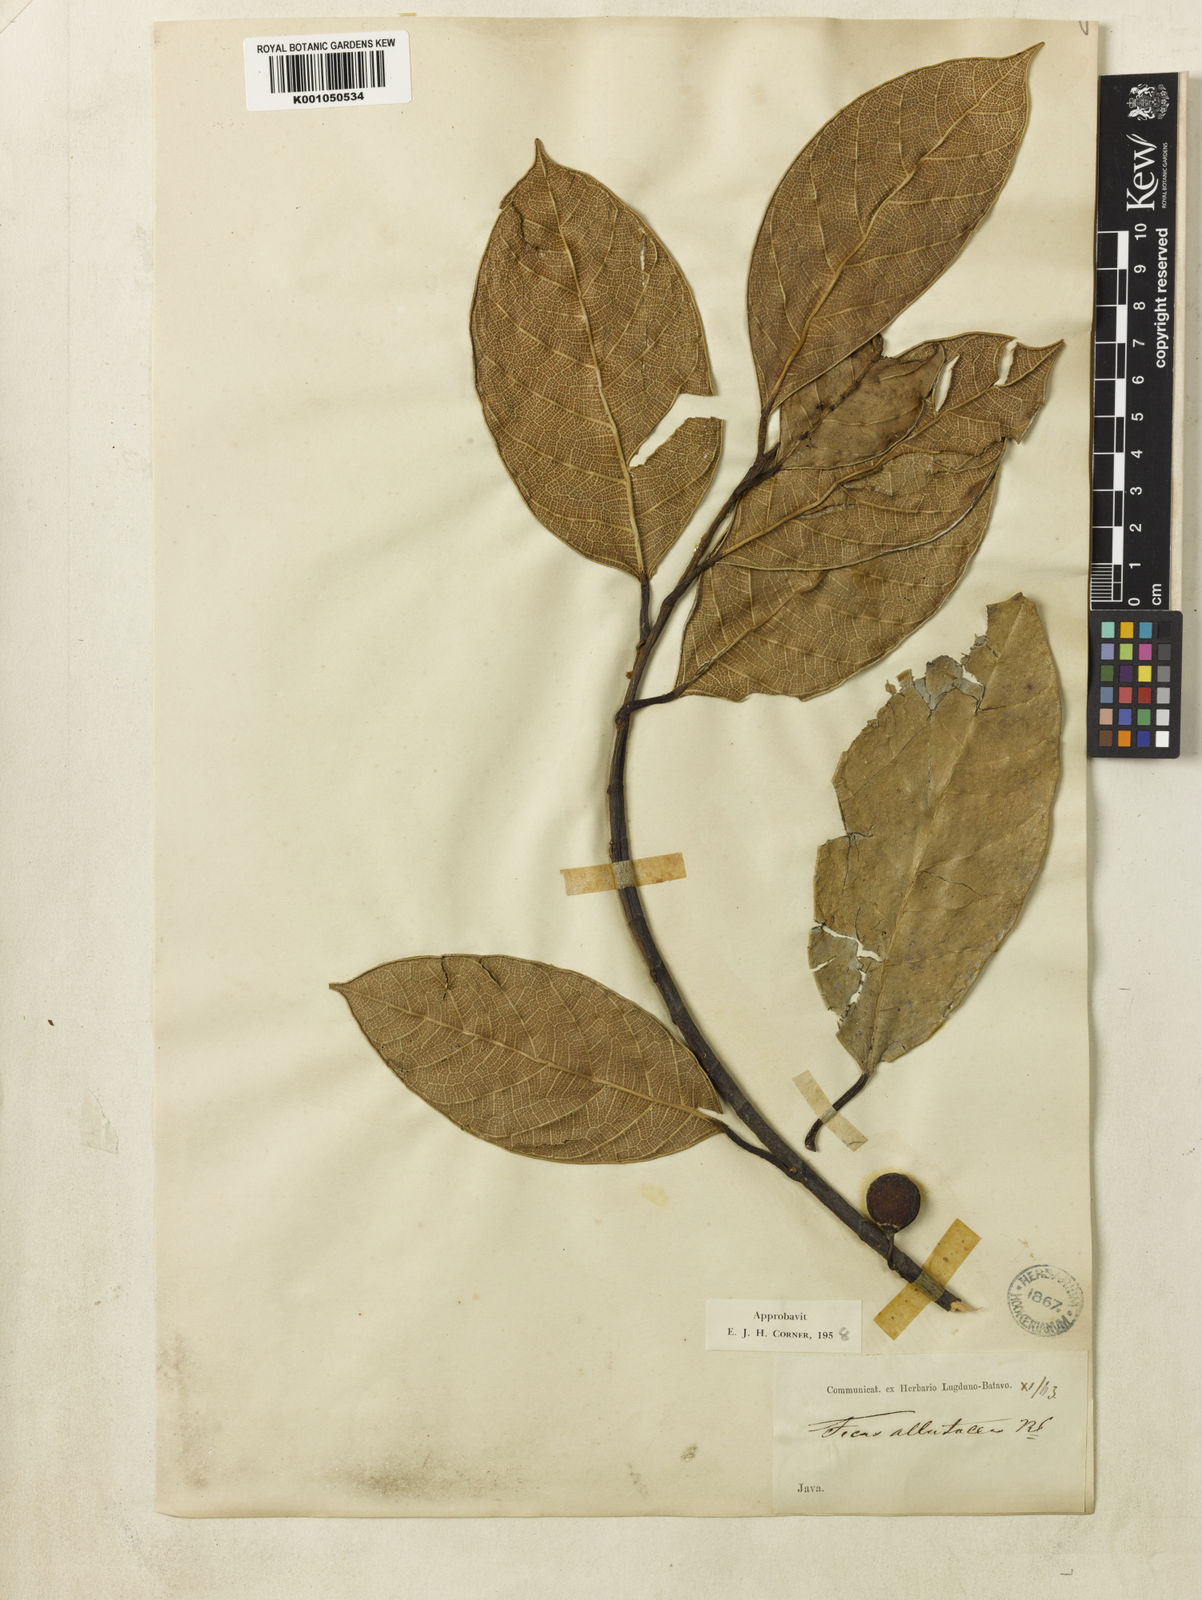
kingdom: Plantae
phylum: Tracheophyta
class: Magnoliopsida
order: Rosales
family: Moraceae
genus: Ficus
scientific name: Ficus allutacea
